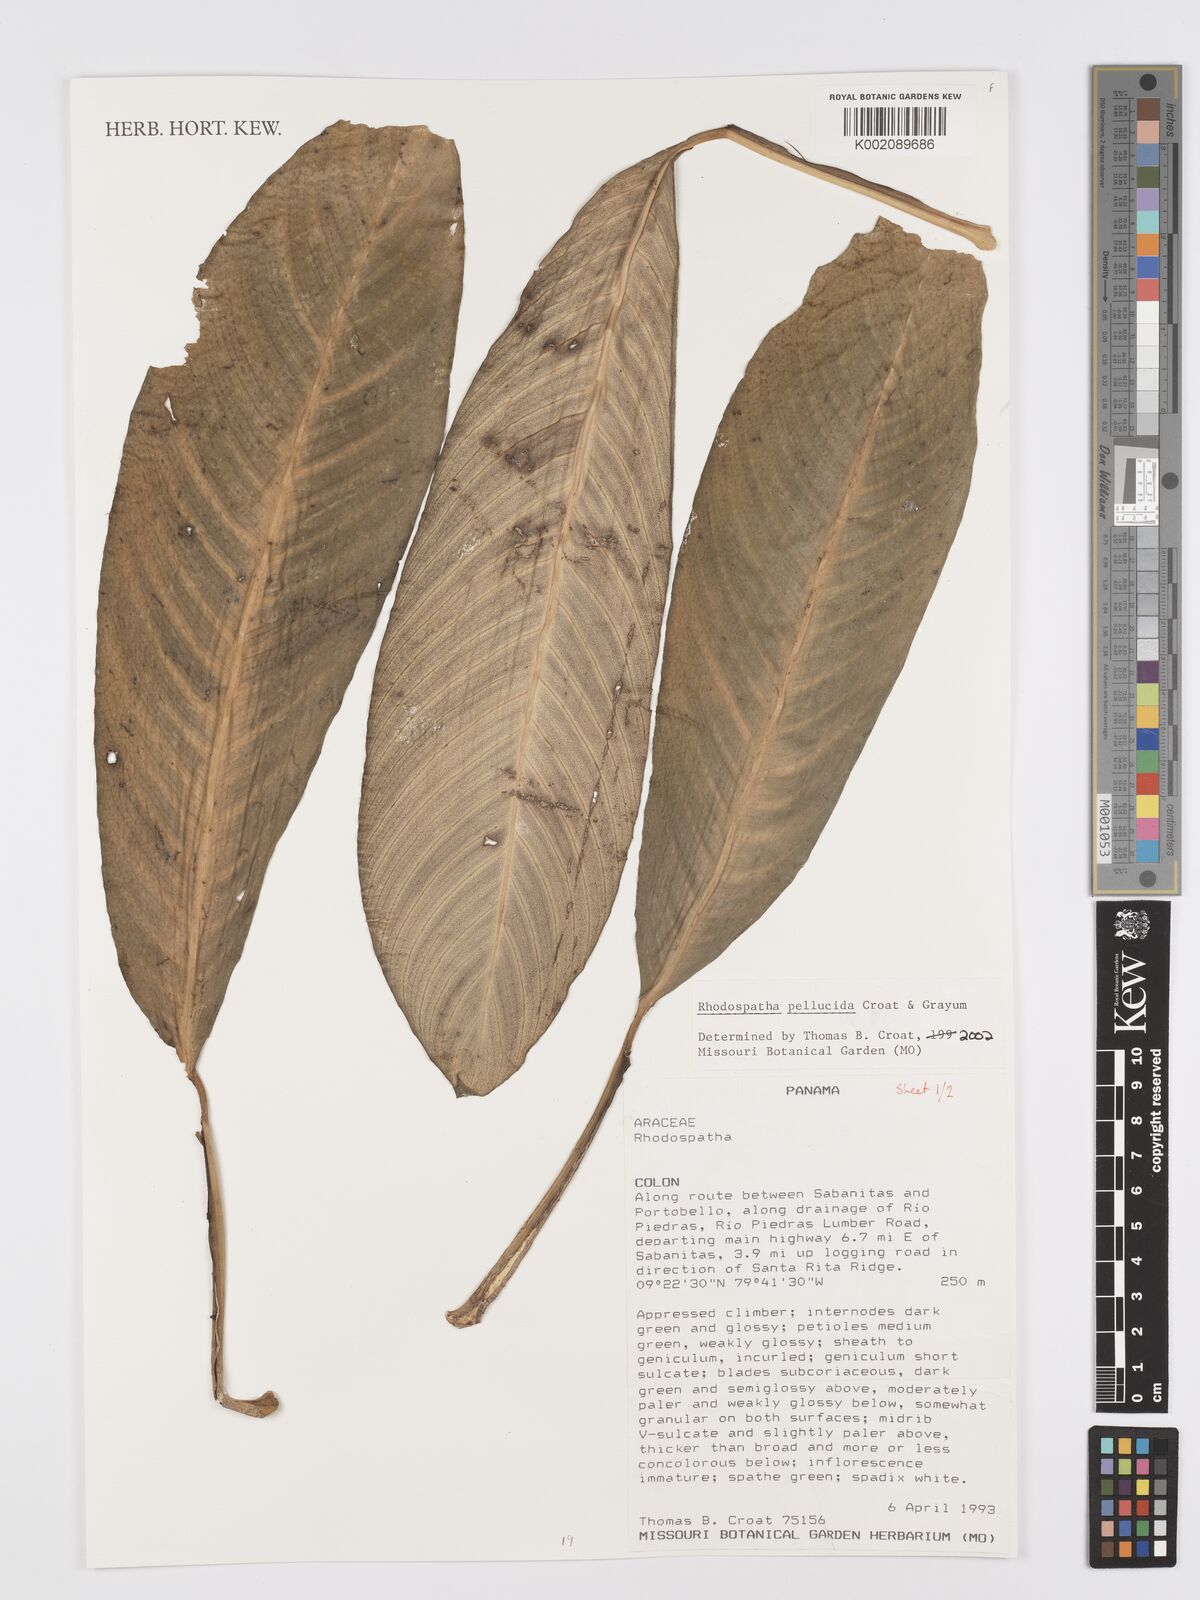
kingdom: Plantae
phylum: Tracheophyta
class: Liliopsida
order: Alismatales
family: Araceae
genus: Rhodospatha
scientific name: Rhodospatha pellucida
